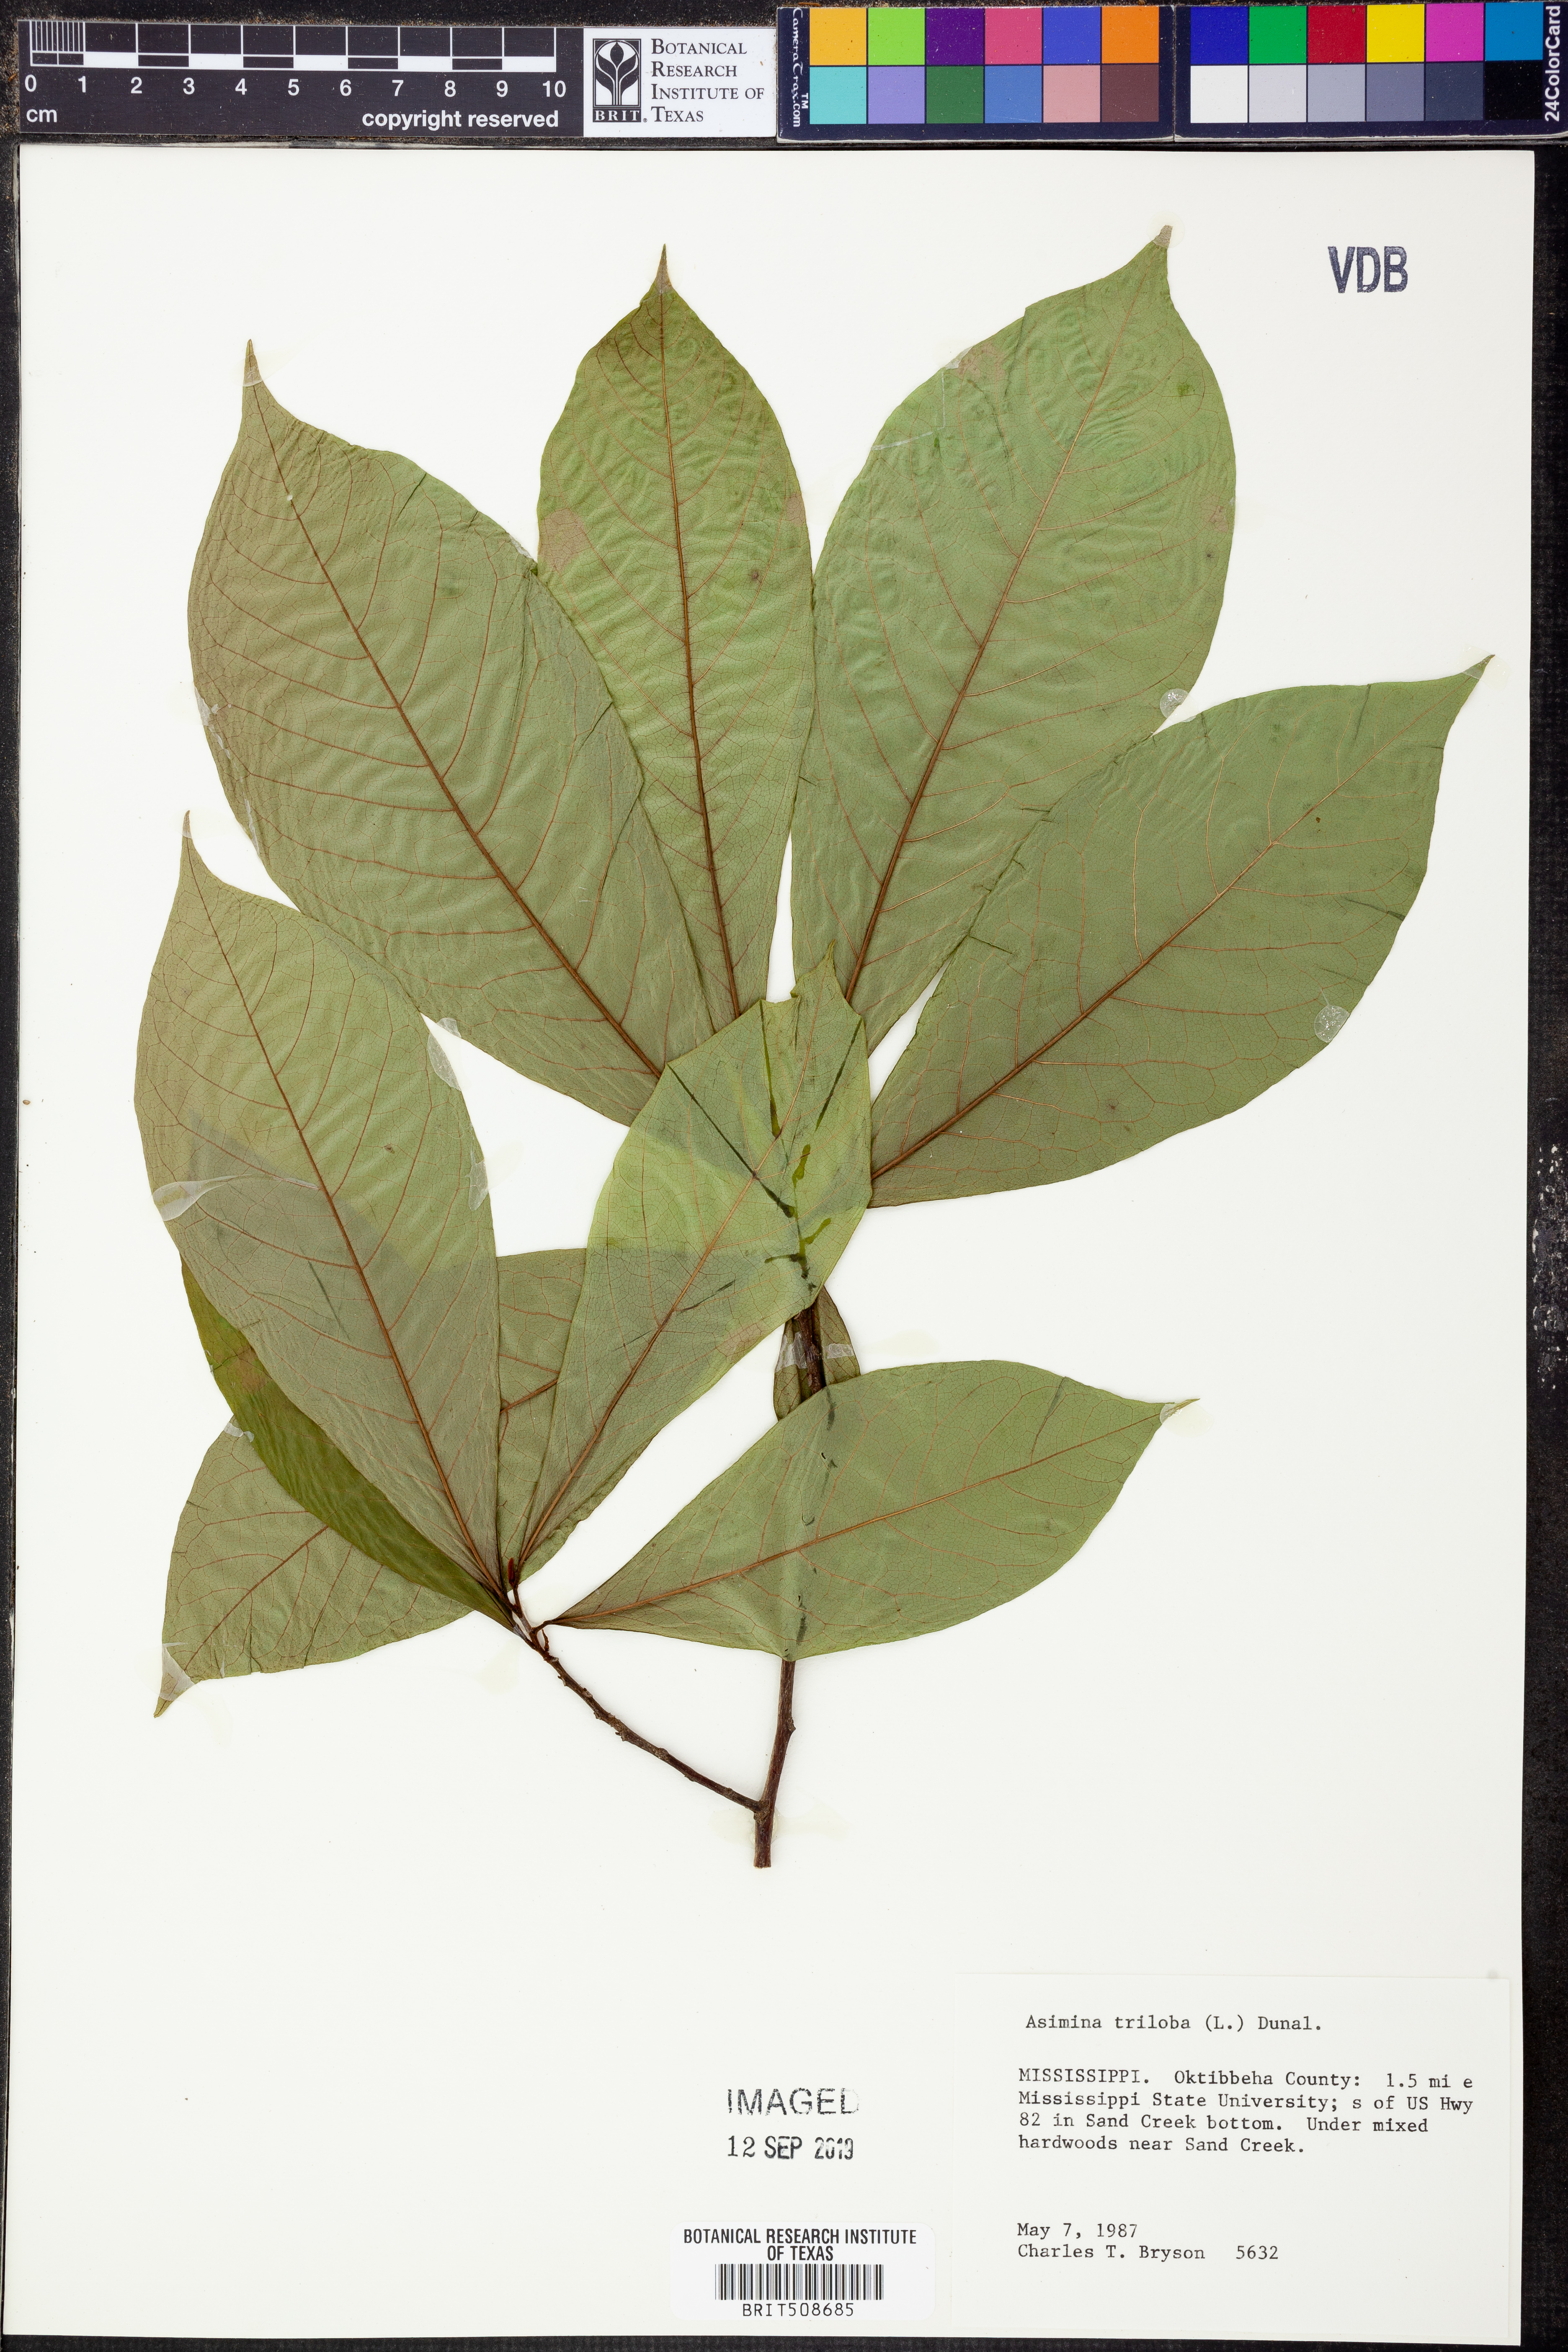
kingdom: Plantae
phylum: Tracheophyta
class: Magnoliopsida
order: Magnoliales
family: Annonaceae
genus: Asimina
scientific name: Asimina triloba
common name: Dog-banana
